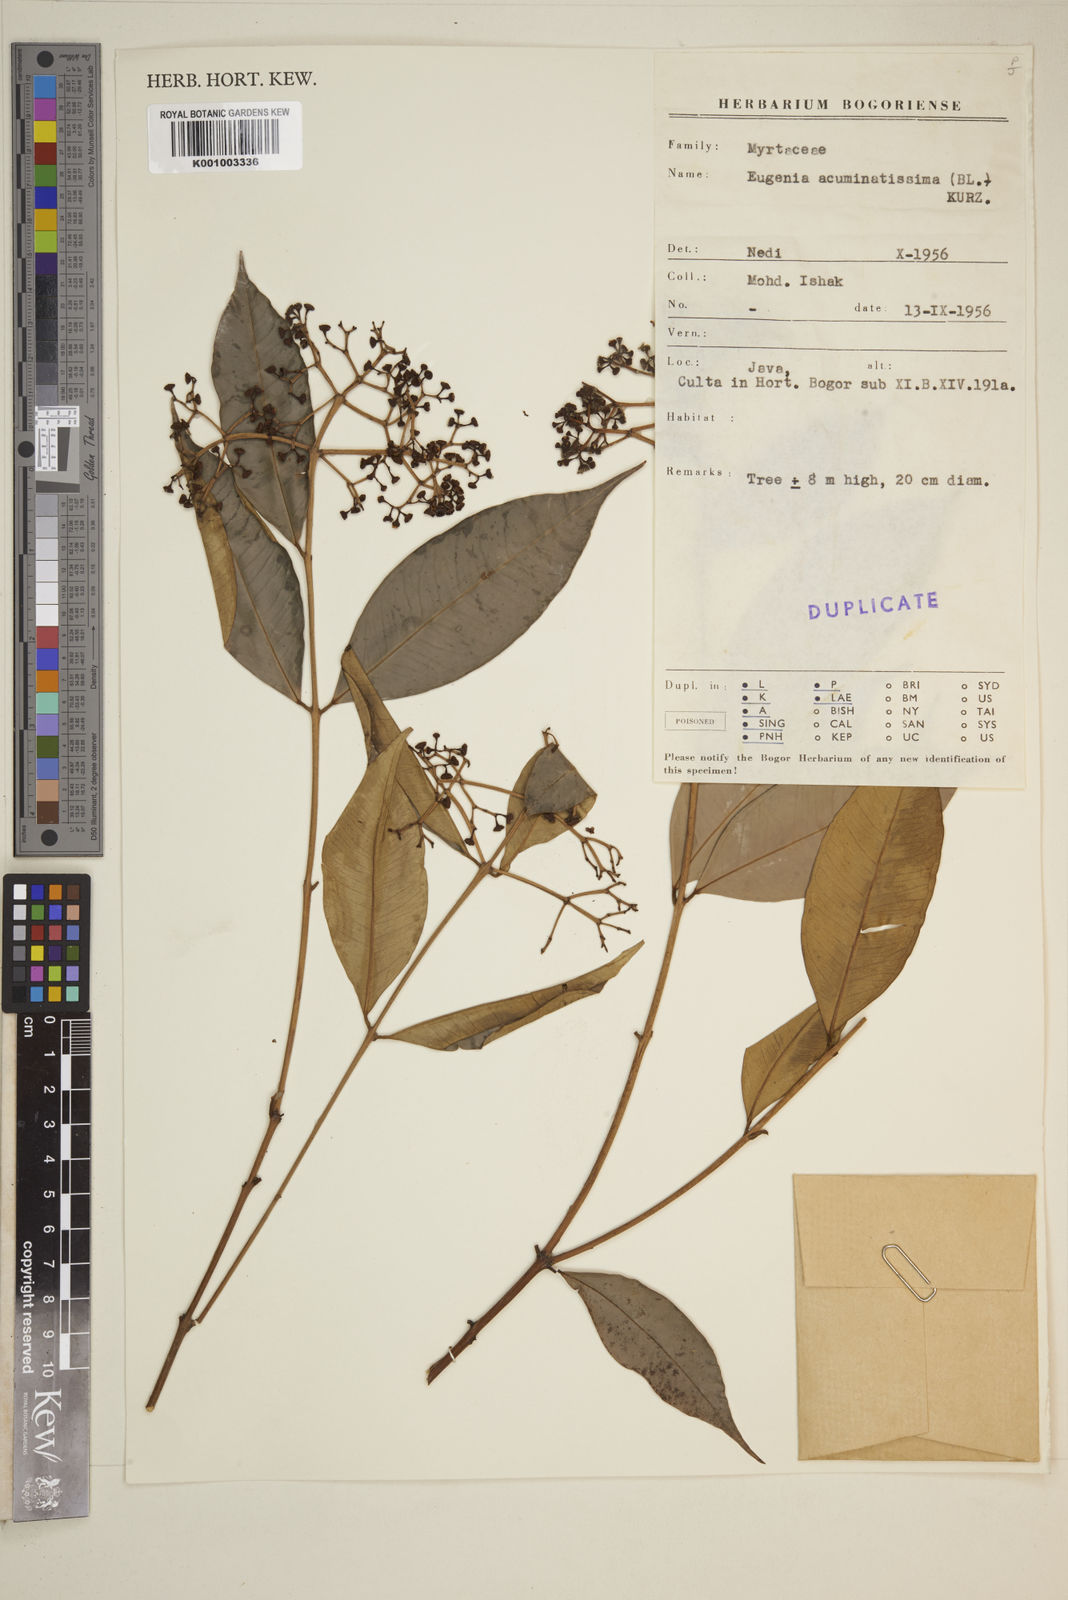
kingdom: Plantae
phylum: Tracheophyta
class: Magnoliopsida
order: Myrtales
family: Myrtaceae
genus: Eugenia
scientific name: Eugenia
